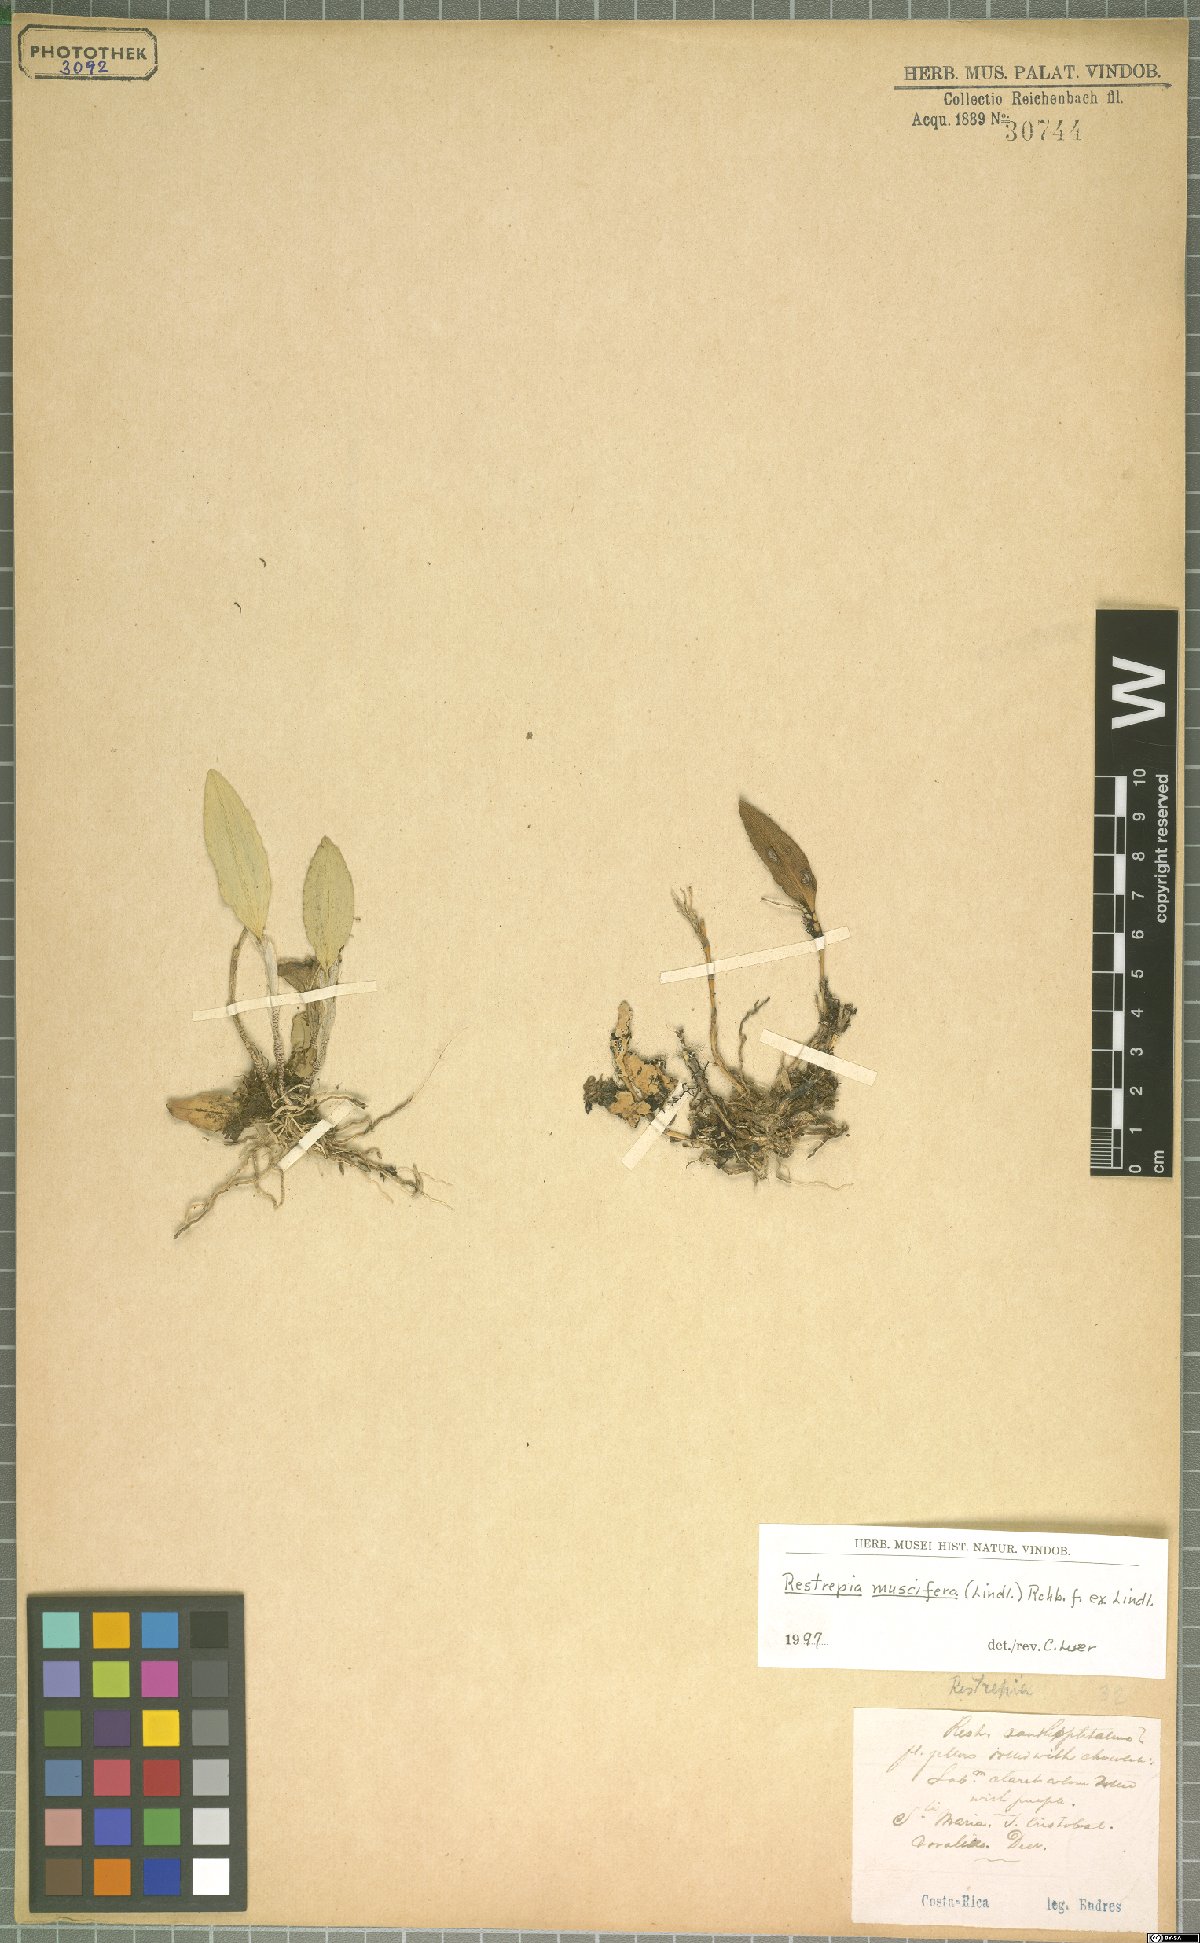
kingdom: Plantae
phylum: Tracheophyta
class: Liliopsida
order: Asparagales
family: Orchidaceae
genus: Restrepia
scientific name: Restrepia muscifera
